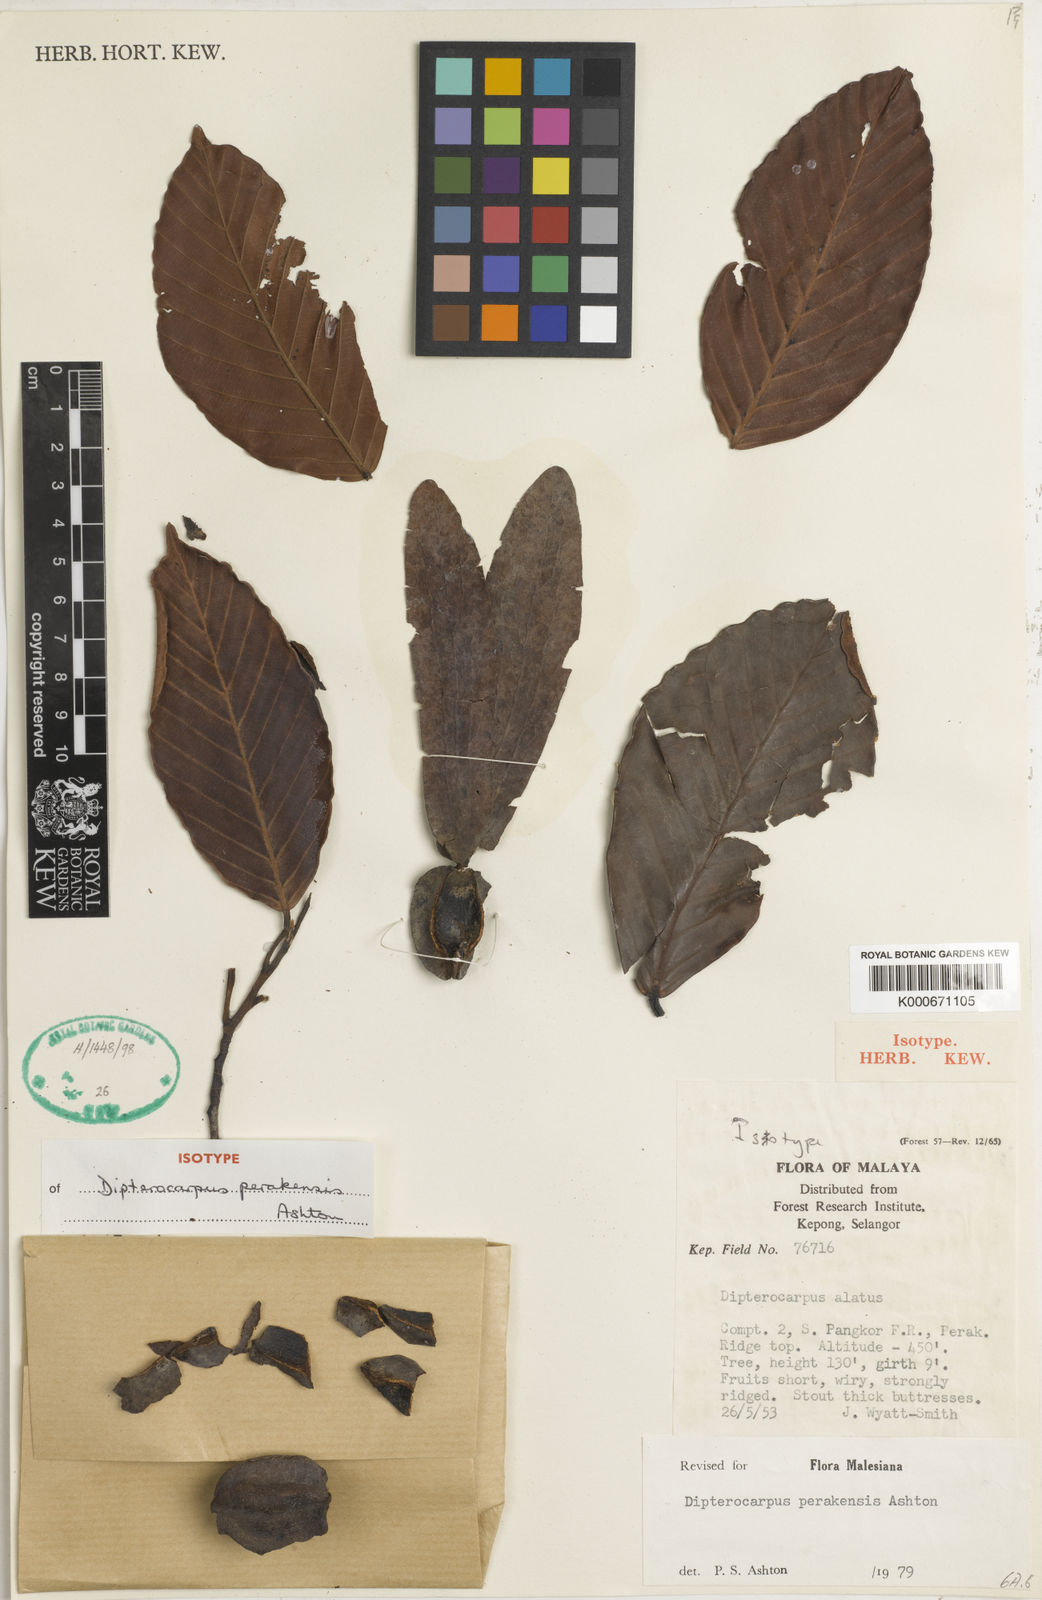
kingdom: Plantae
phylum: Tracheophyta
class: Magnoliopsida
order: Malvales
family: Dipterocarpaceae
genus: Dipterocarpus
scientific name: Dipterocarpus perakensis
